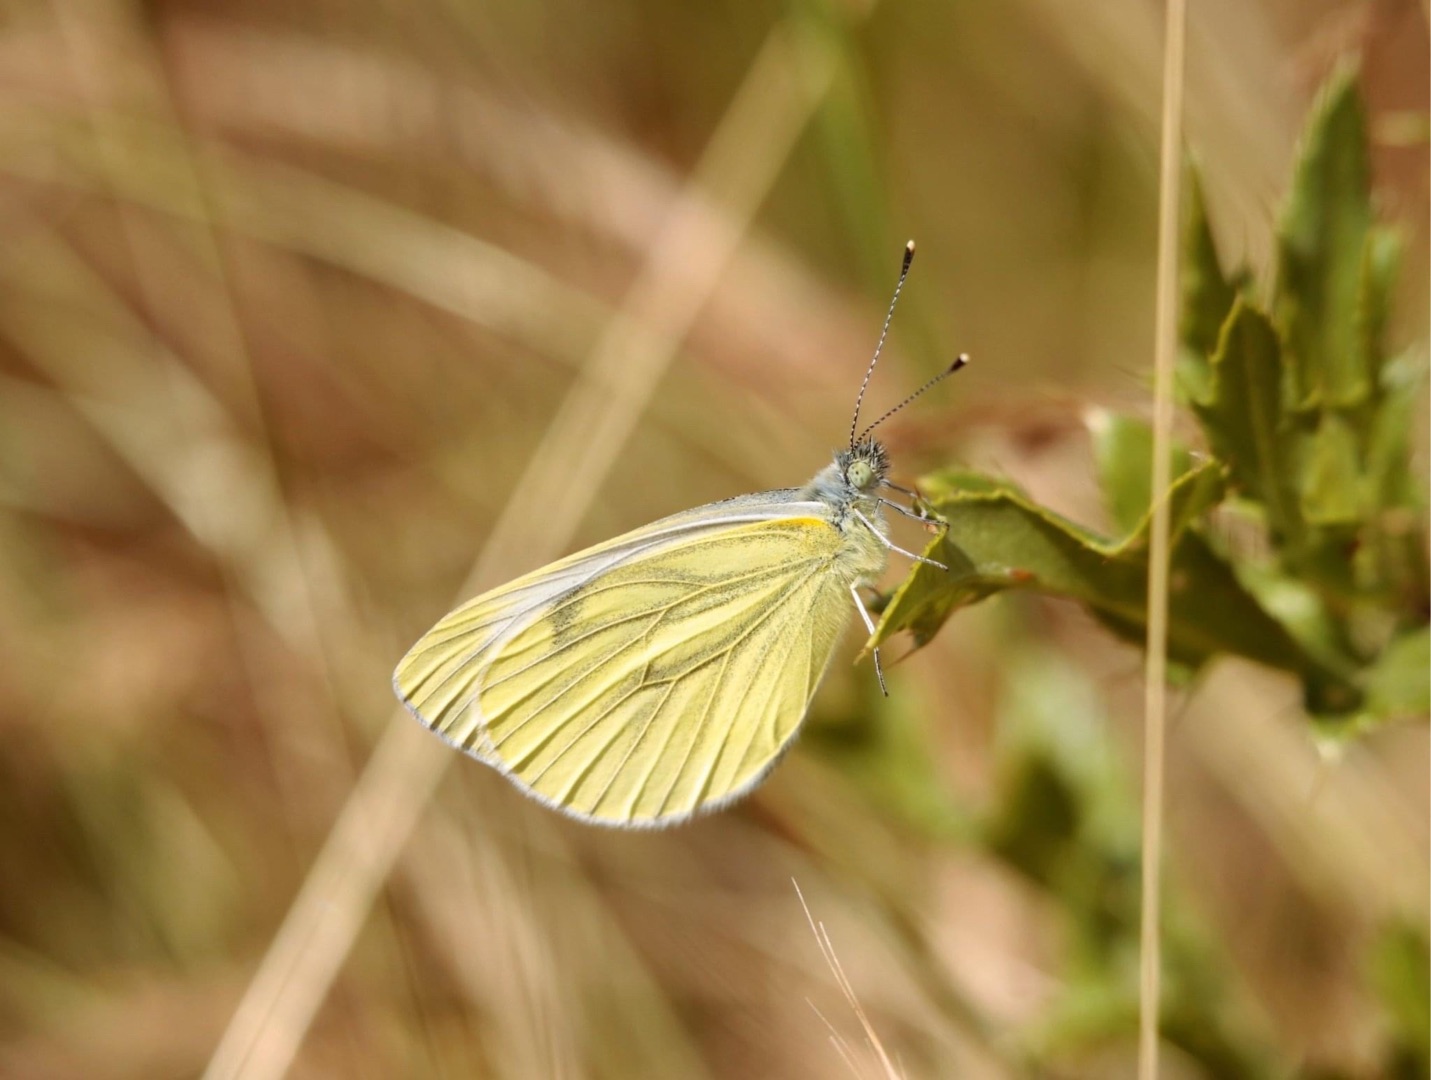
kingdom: Animalia
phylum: Arthropoda
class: Insecta
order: Lepidoptera
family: Pieridae
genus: Pieris
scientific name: Pieris napi
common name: Grønåret kålsommerfugl
